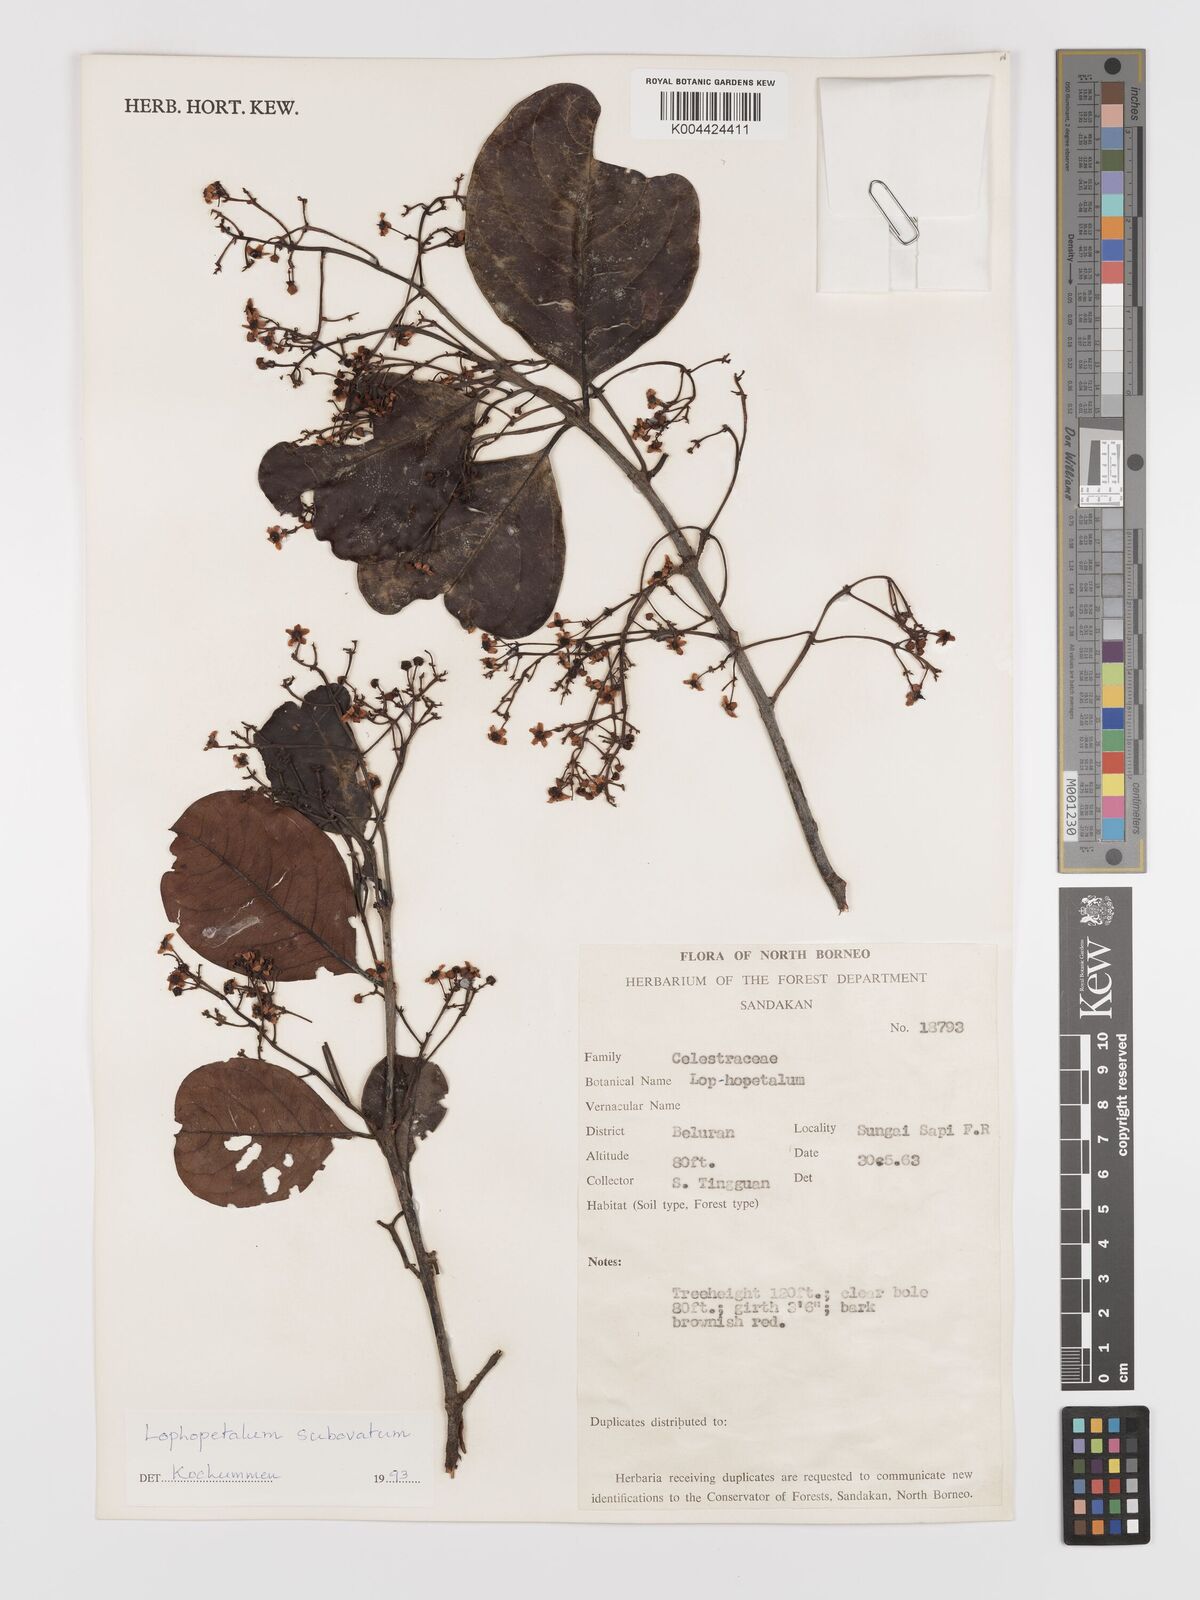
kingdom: Plantae
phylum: Tracheophyta
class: Magnoliopsida
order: Celastrales
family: Celastraceae
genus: Lophopetalum
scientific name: Lophopetalum
